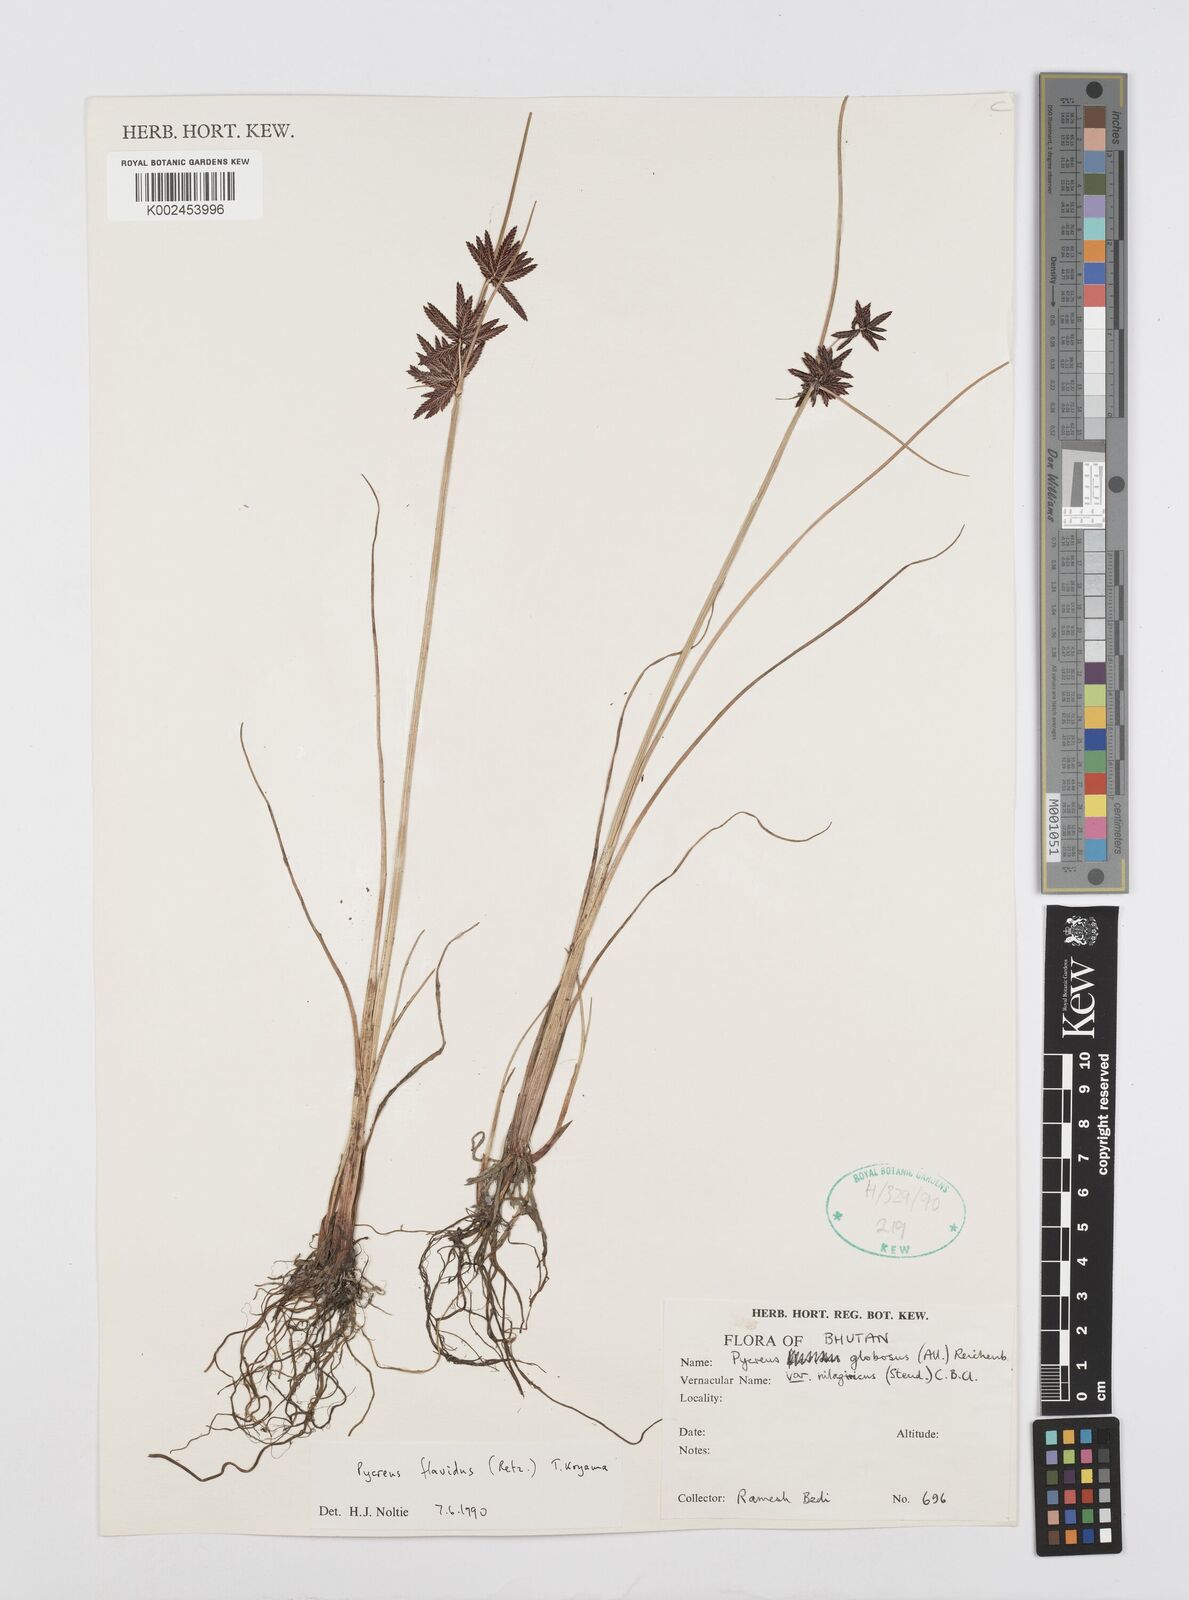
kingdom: Plantae
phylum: Tracheophyta
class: Liliopsida
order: Poales
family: Cyperaceae
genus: Cyperus
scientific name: Cyperus flavidus
